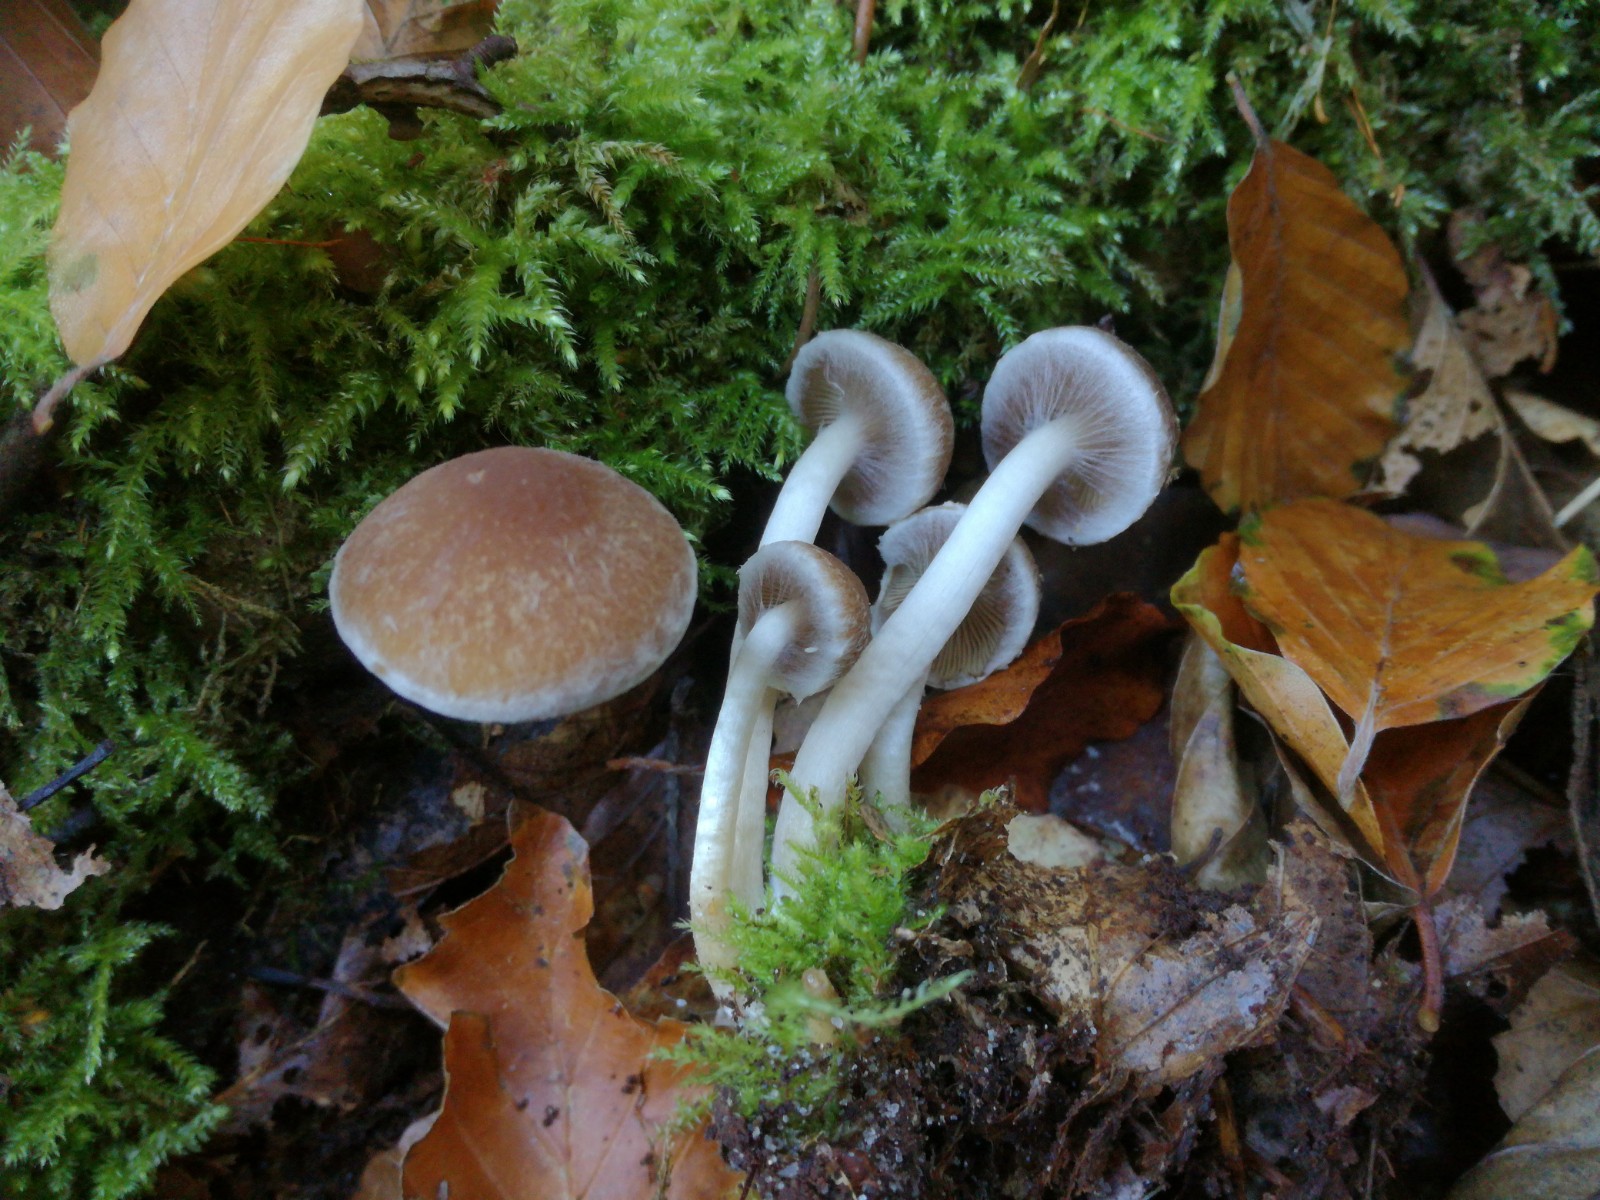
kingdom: Fungi
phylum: Basidiomycota
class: Agaricomycetes
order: Agaricales
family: Psathyrellaceae
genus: Psathyrella
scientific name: Psathyrella piluliformis
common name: lysstokket mørkhat
